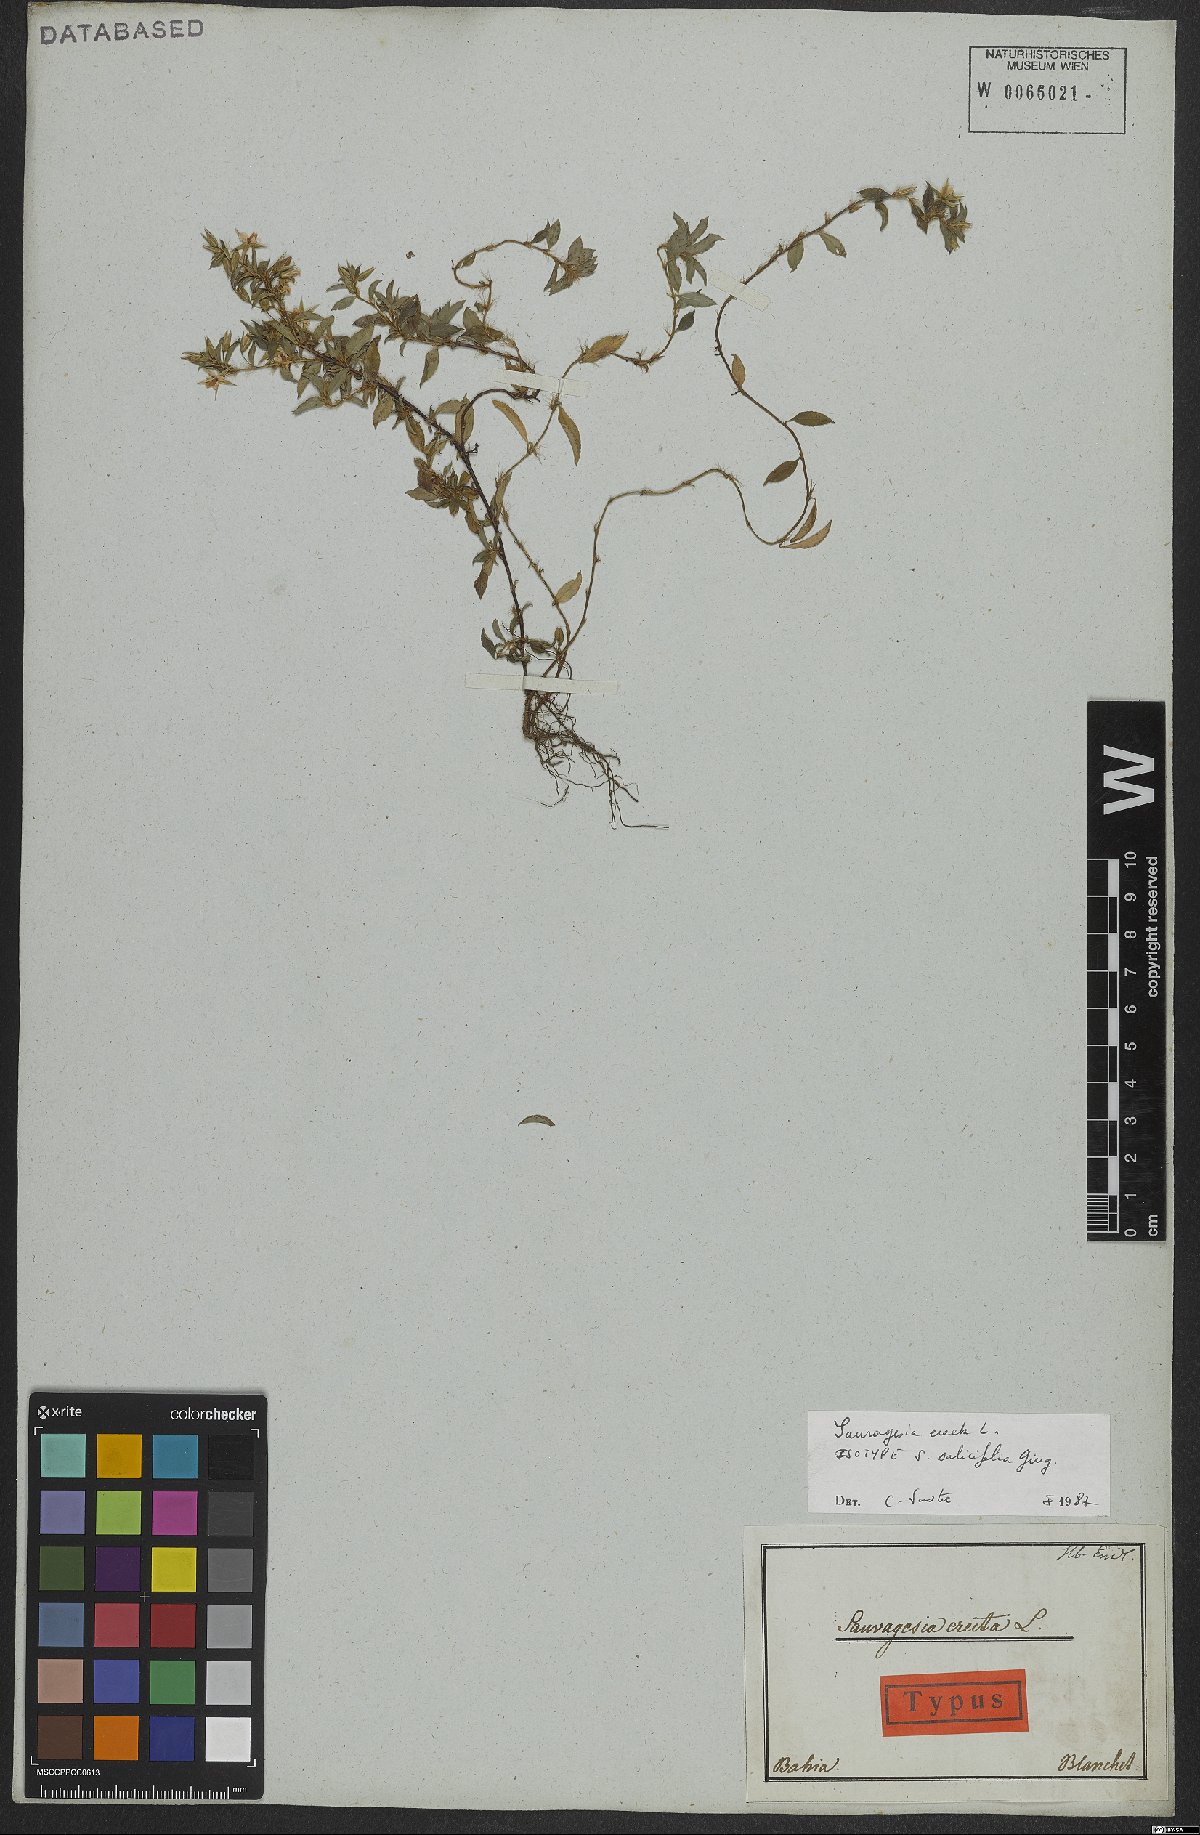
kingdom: Plantae
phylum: Tracheophyta
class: Magnoliopsida
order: Malpighiales
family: Ochnaceae
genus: Sauvagesia
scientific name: Sauvagesia erecta
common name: Creole tea
